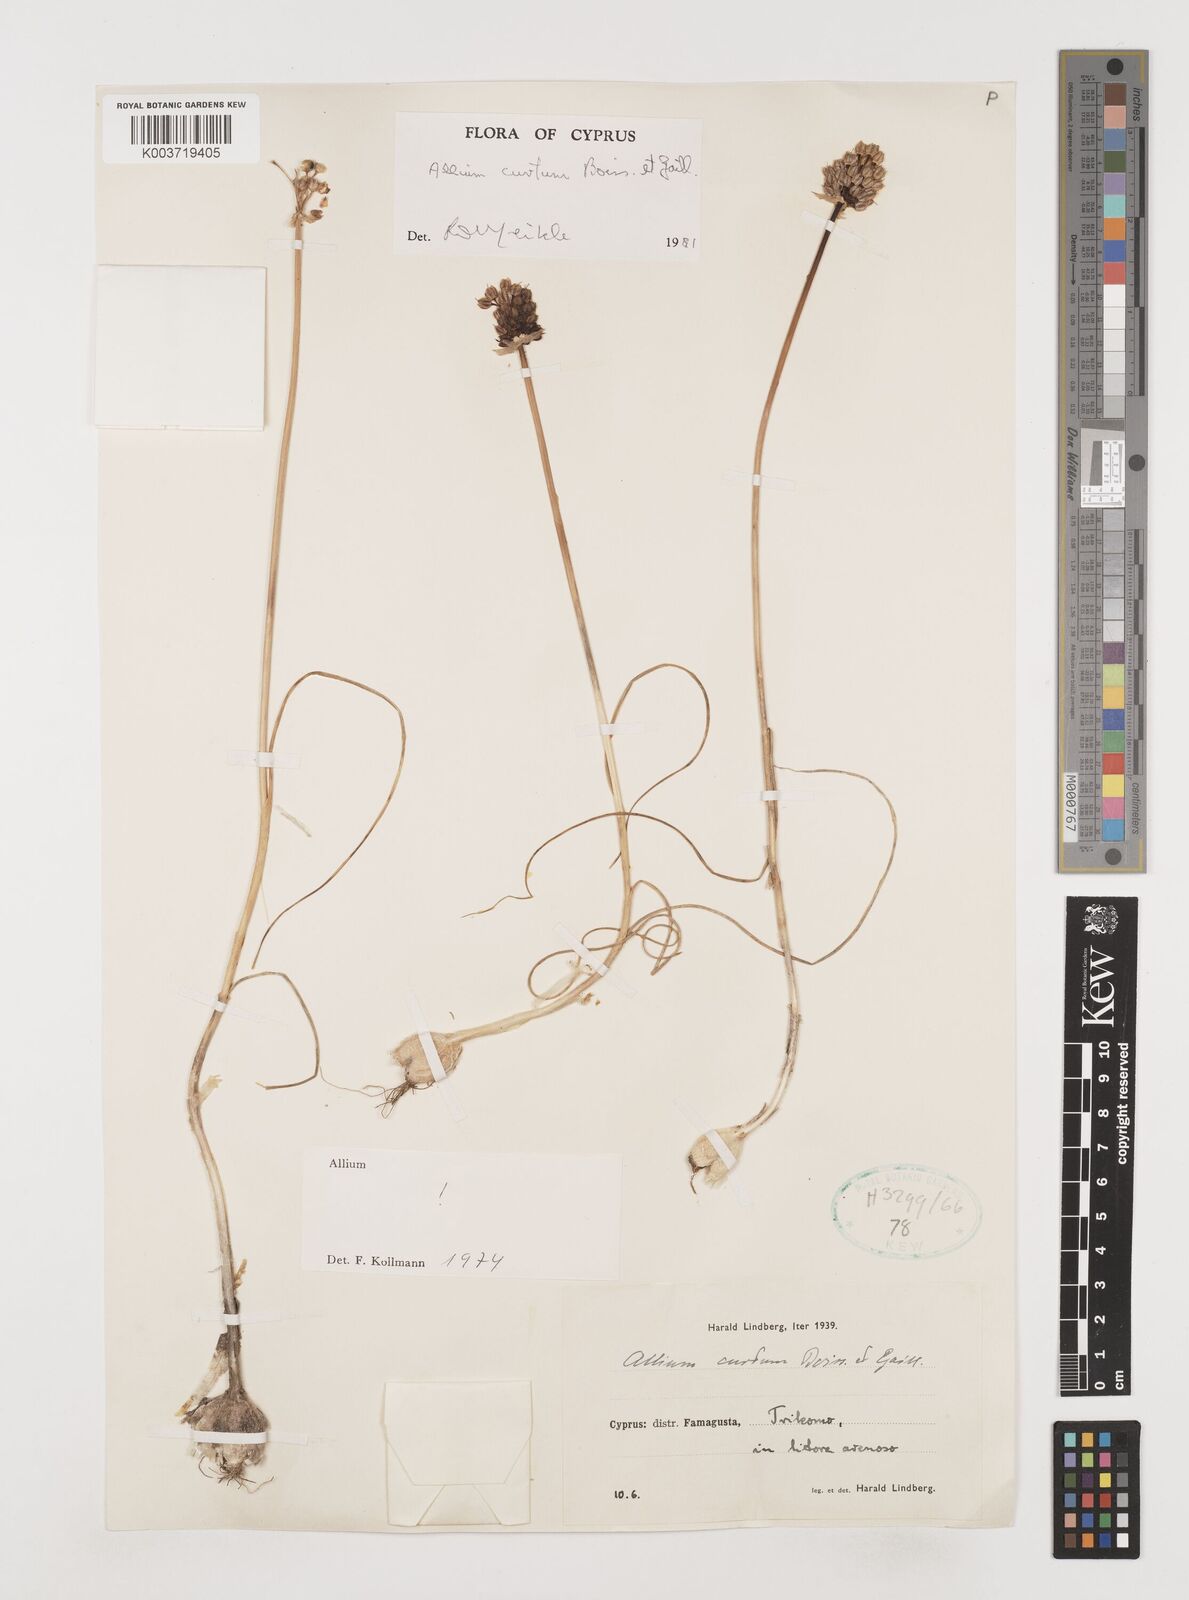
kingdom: Plantae
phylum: Tracheophyta
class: Liliopsida
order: Asparagales
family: Amaryllidaceae
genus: Allium
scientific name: Allium curtum
